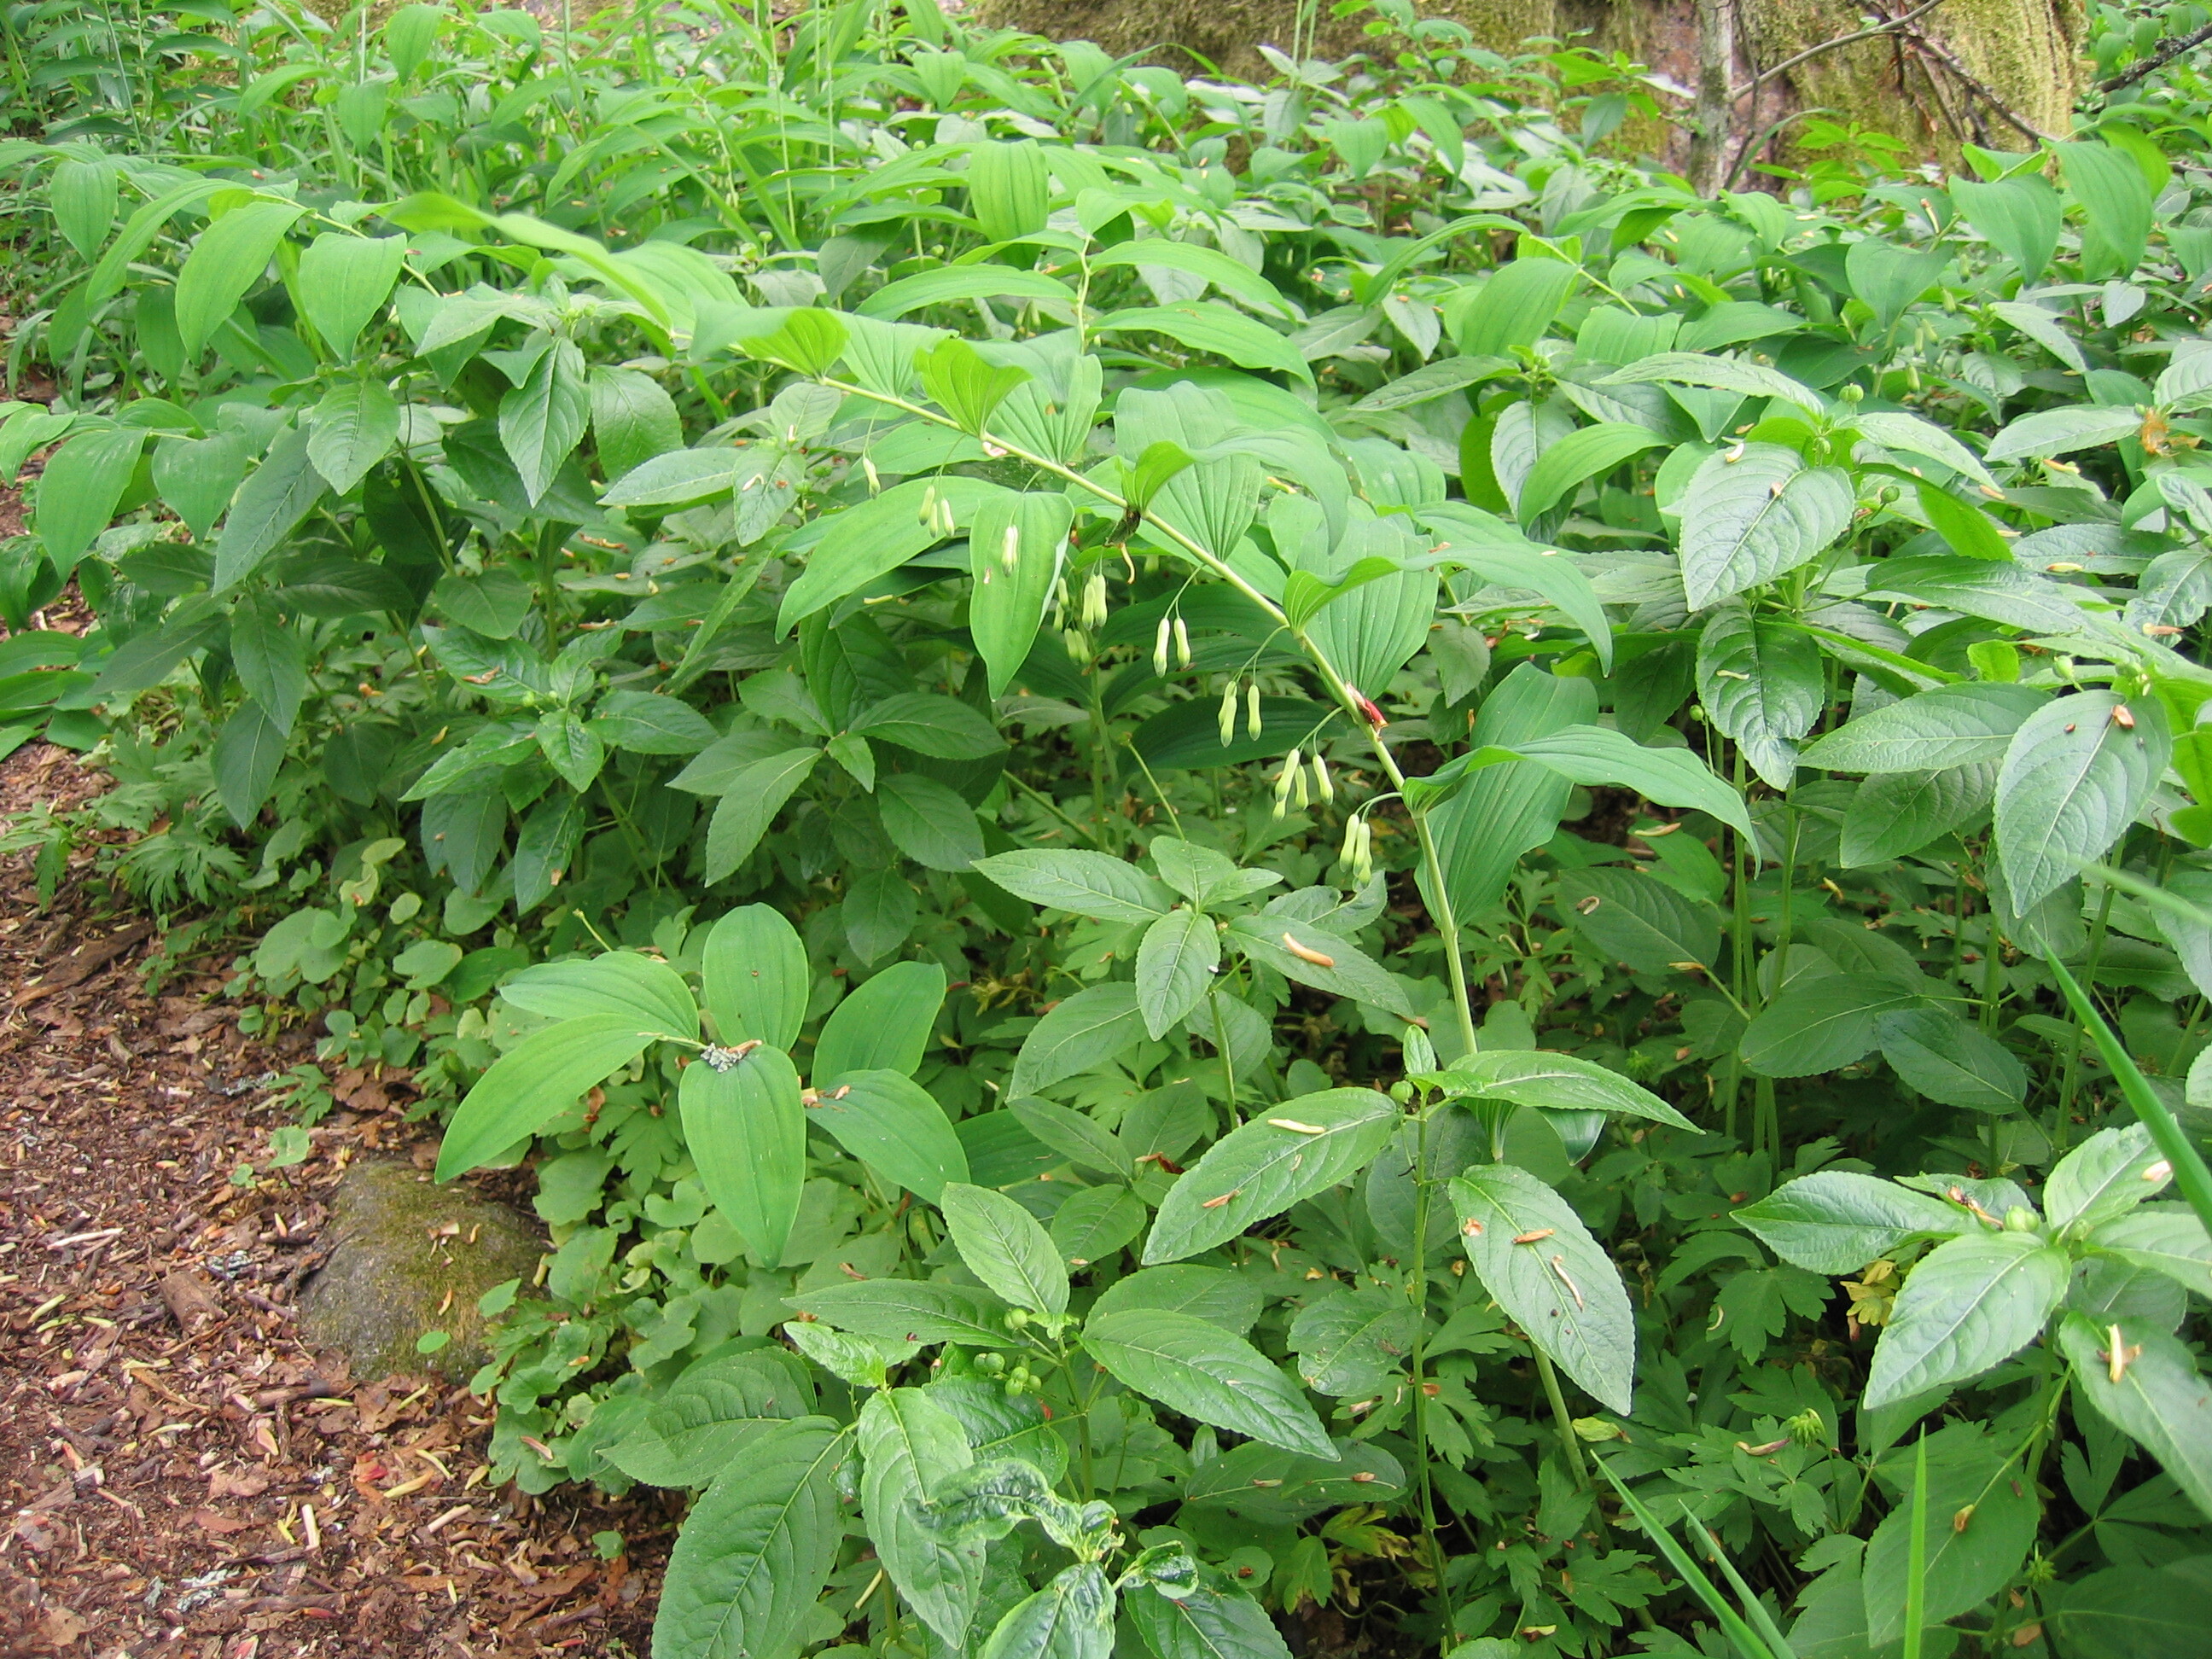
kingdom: Plantae
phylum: Tracheophyta
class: Liliopsida
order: Asparagales
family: Asparagaceae
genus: Polygonatum
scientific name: Polygonatum multiflorum
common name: Solomon's-seal
